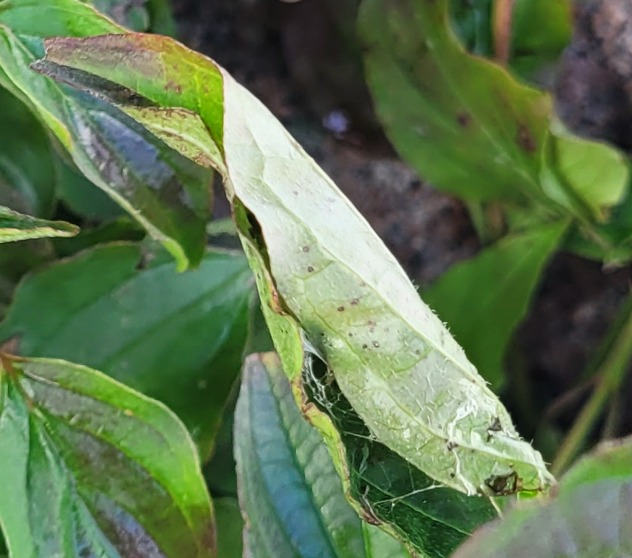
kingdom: Plantae
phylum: Tracheophyta
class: Magnoliopsida
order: Cornales
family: Cornaceae
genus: Cornus
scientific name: Cornus sanguinea
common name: Rød kornel
